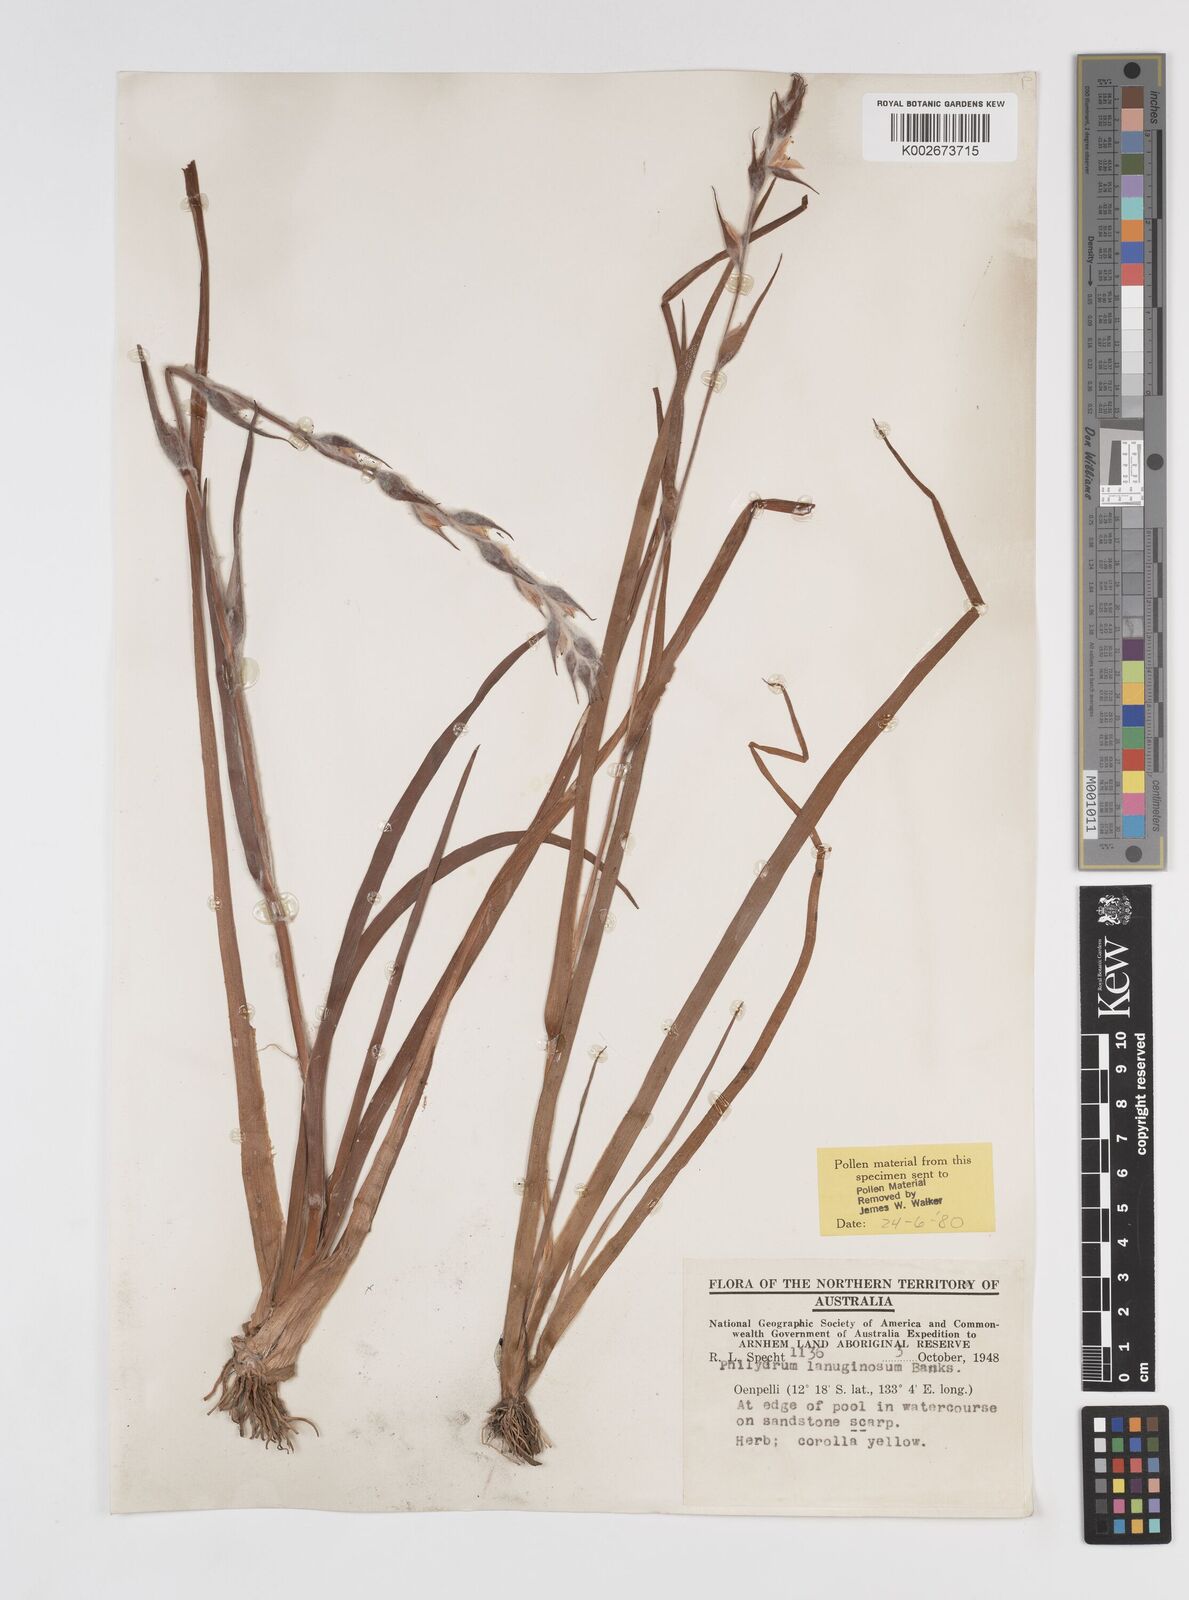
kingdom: Plantae
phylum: Tracheophyta
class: Liliopsida
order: Commelinales
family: Philydraceae
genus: Philydrum
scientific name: Philydrum lanuginosum
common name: Woolly frog's mouth
